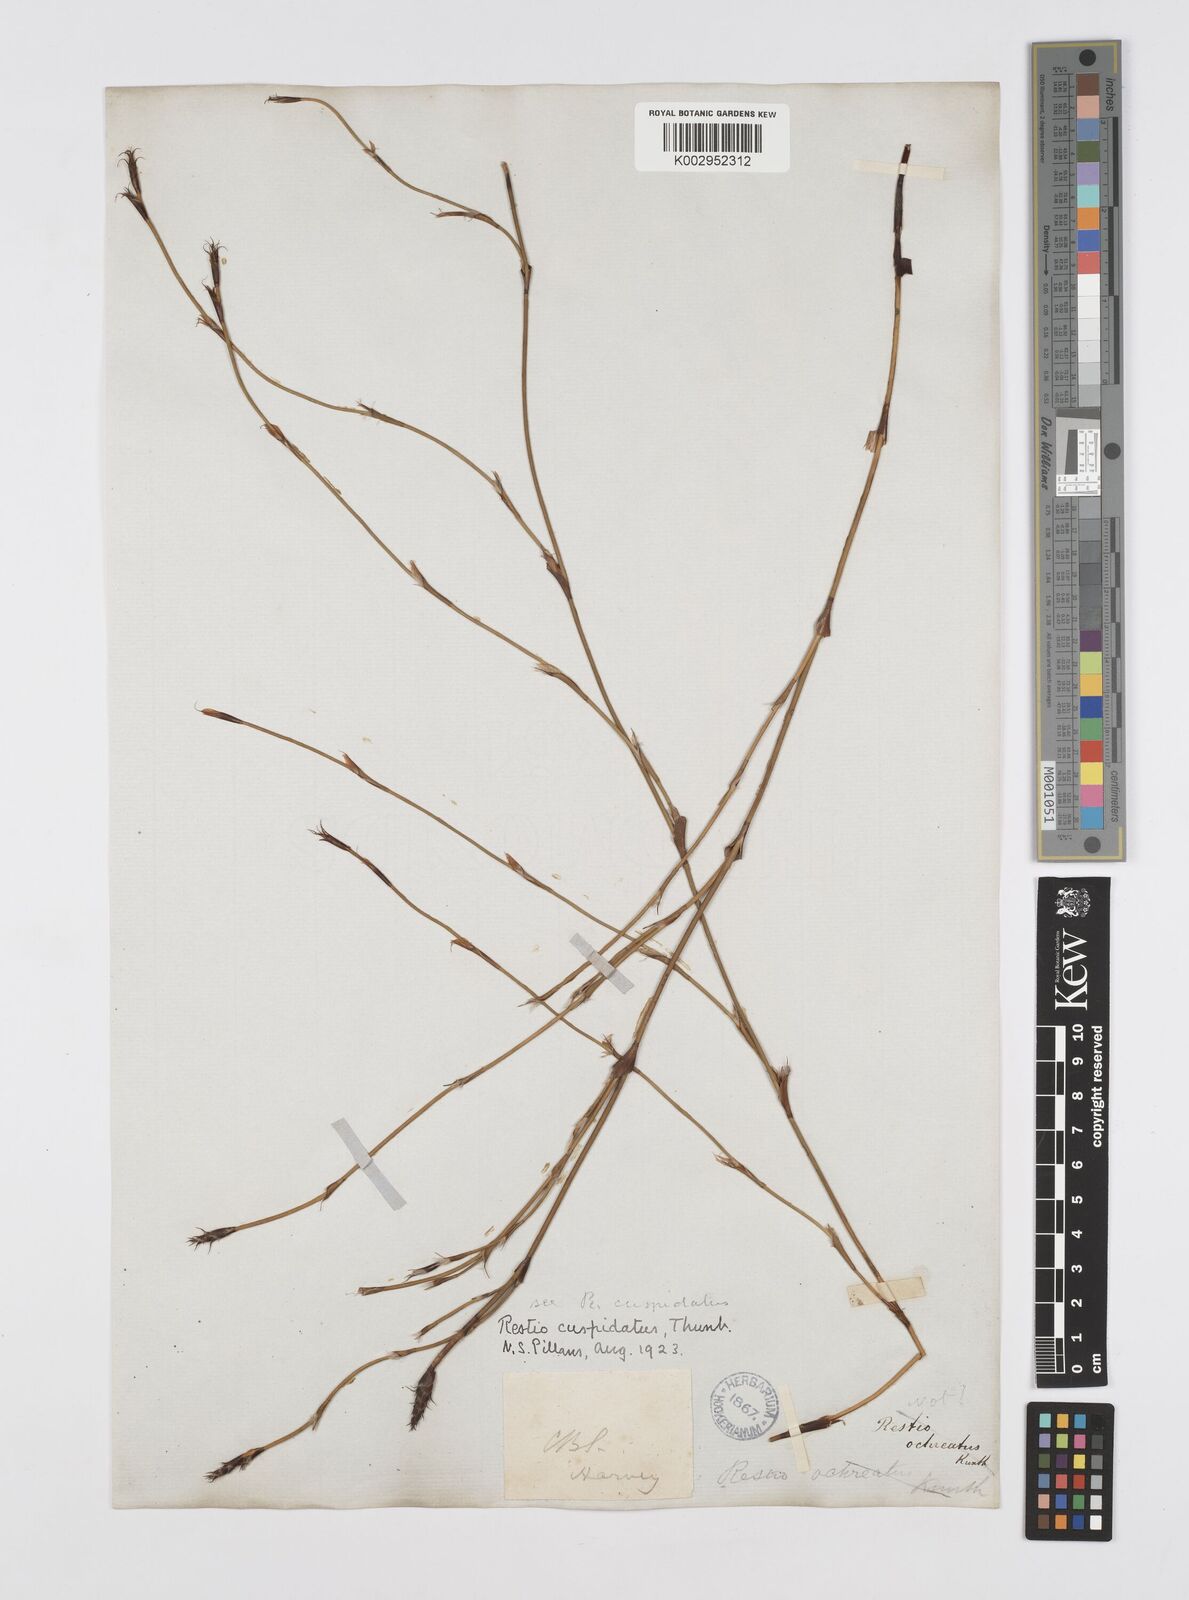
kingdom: Plantae
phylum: Tracheophyta
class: Liliopsida
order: Poales
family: Restionaceae
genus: Restio
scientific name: Restio capensis
